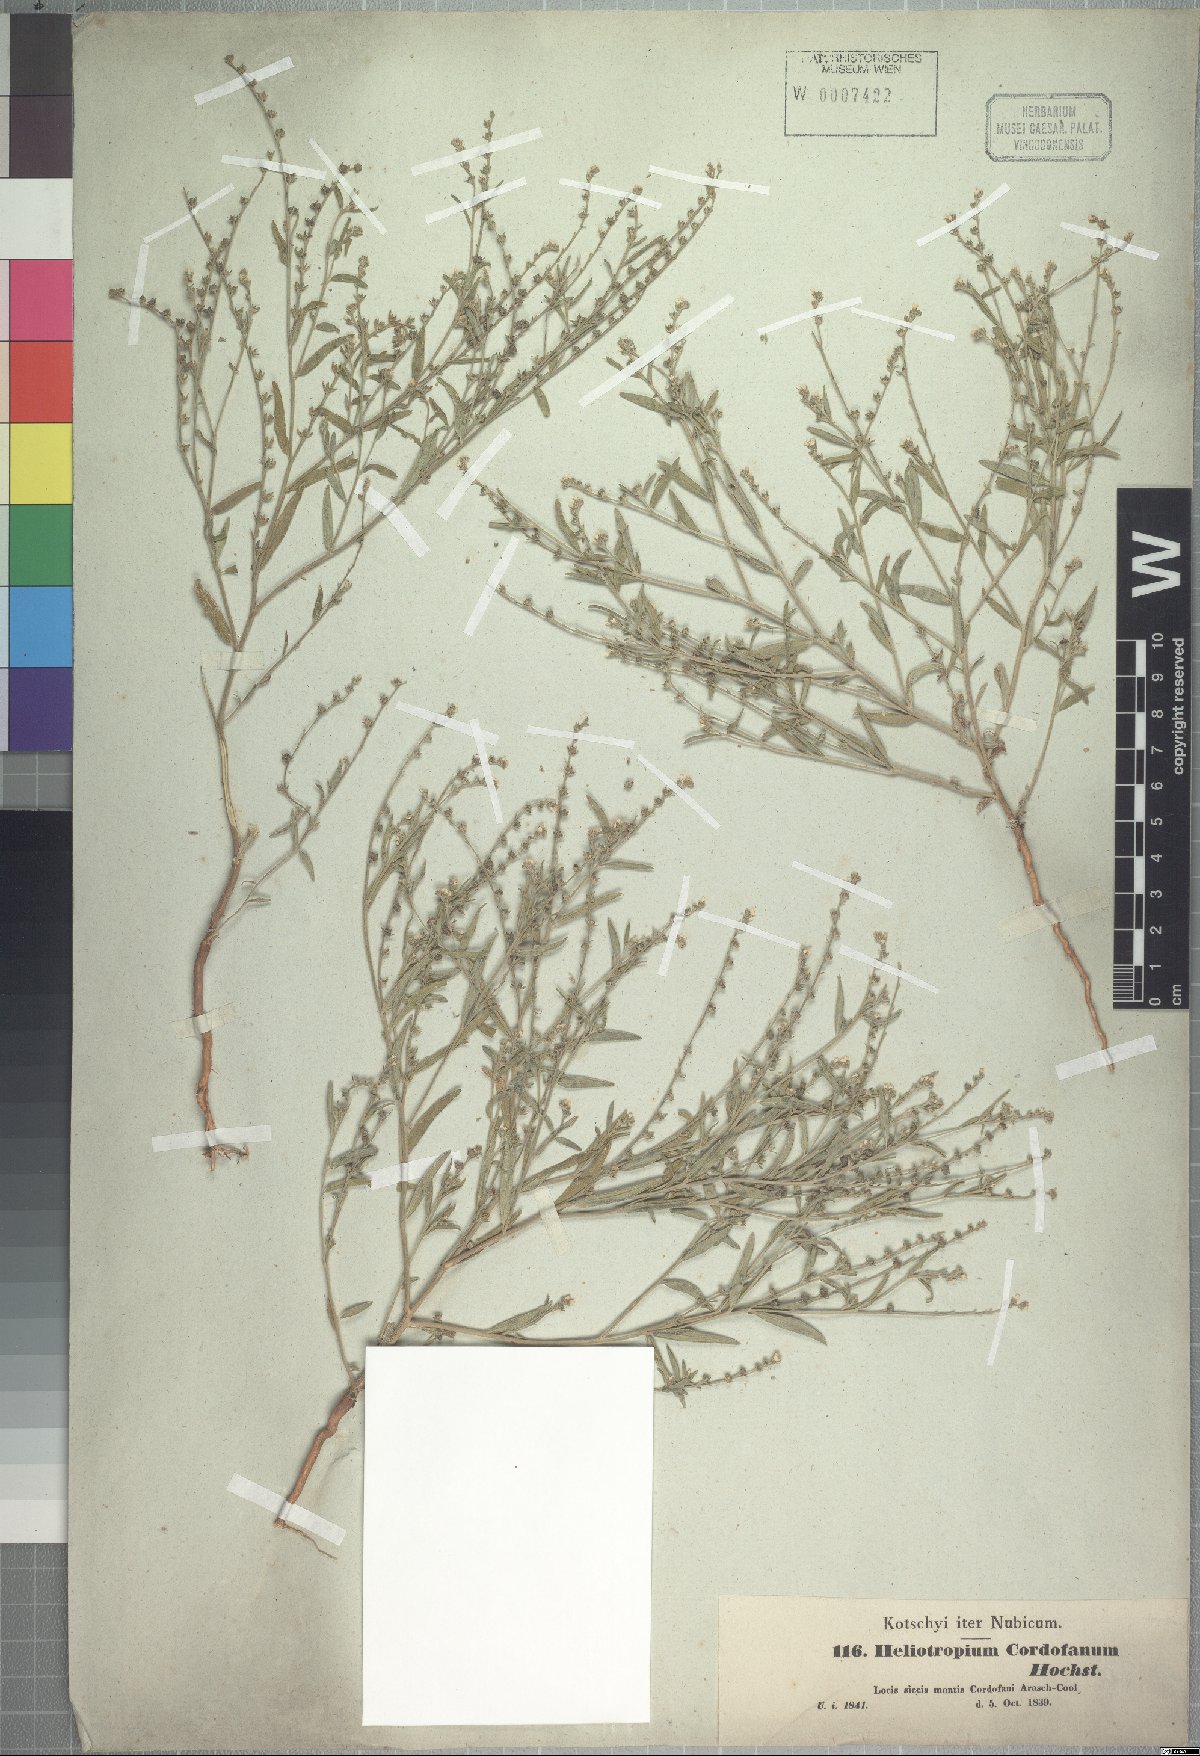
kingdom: Plantae
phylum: Tracheophyta
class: Magnoliopsida
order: Boraginales
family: Heliotropiaceae
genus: Euploca
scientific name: Euploca strigosa
